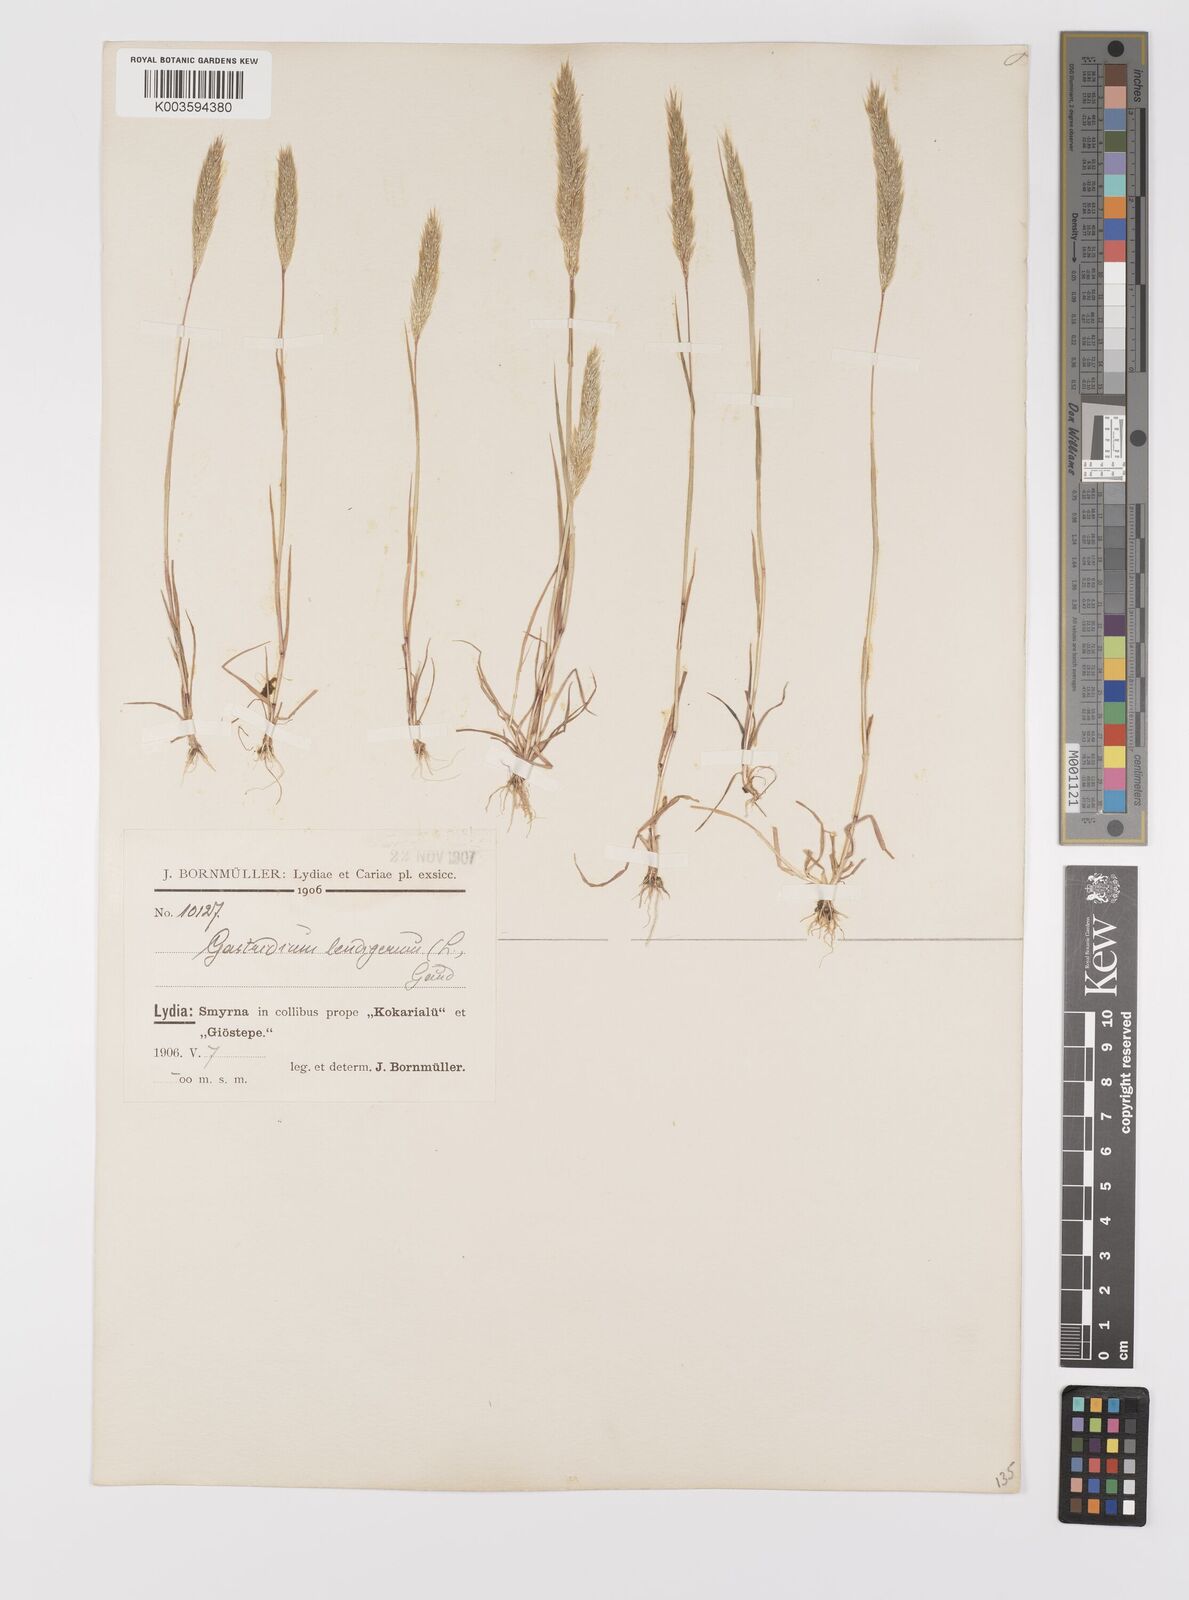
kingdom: Plantae
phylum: Tracheophyta
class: Liliopsida
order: Poales
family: Poaceae
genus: Gastridium
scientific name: Gastridium phleoides
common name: Nit grass
